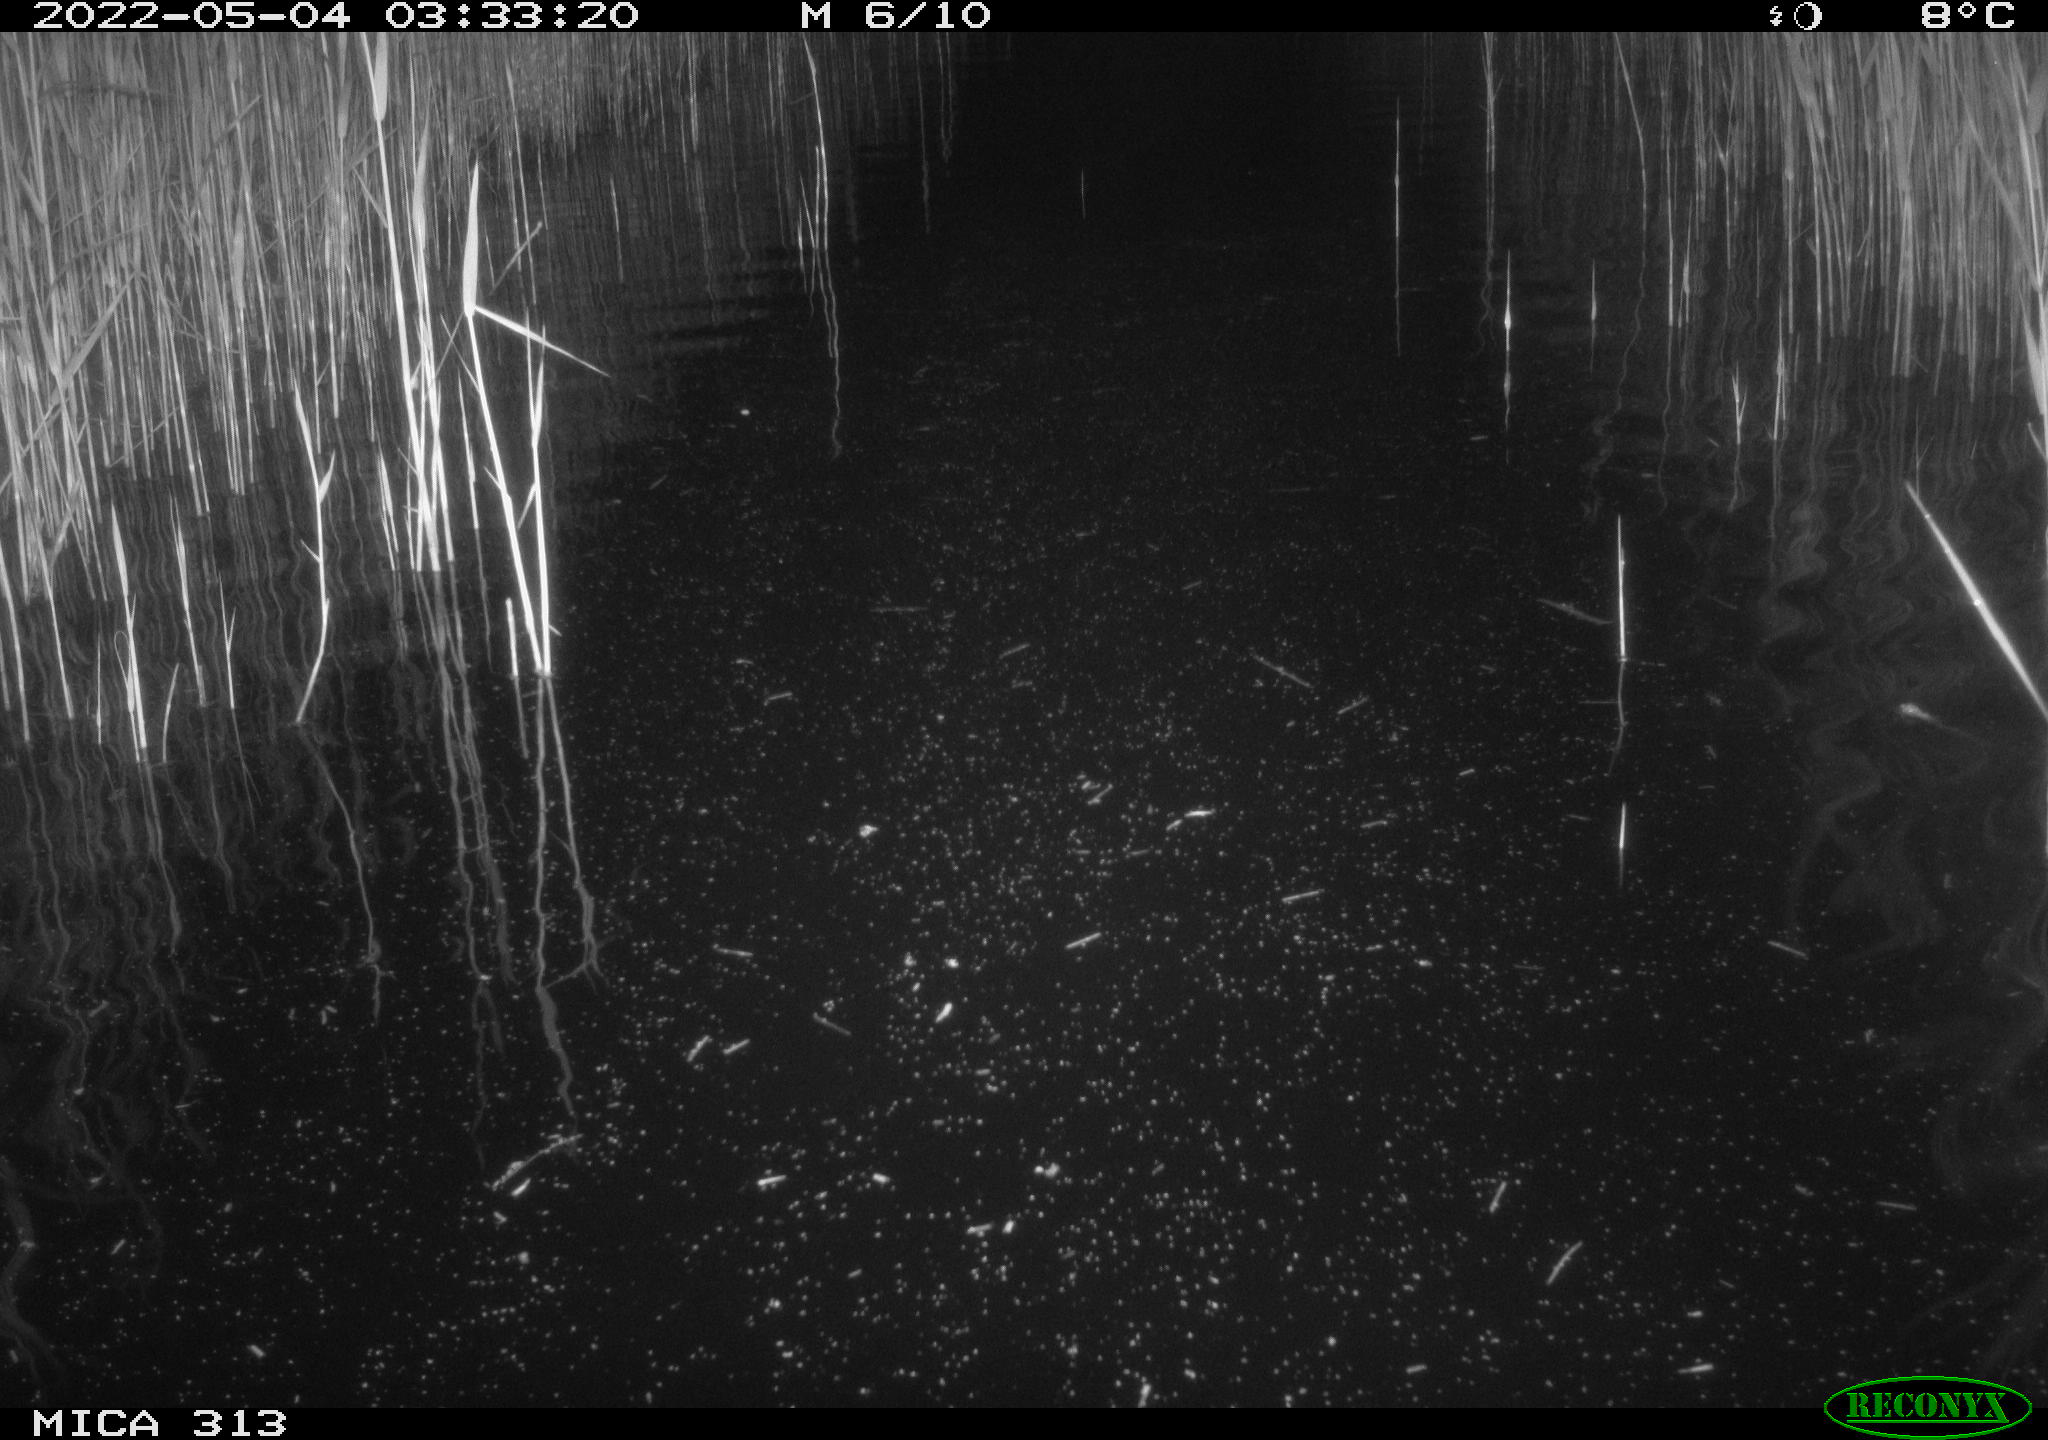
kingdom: Animalia
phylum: Chordata
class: Mammalia
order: Rodentia
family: Cricetidae
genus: Ondatra
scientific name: Ondatra zibethicus
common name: Muskrat
